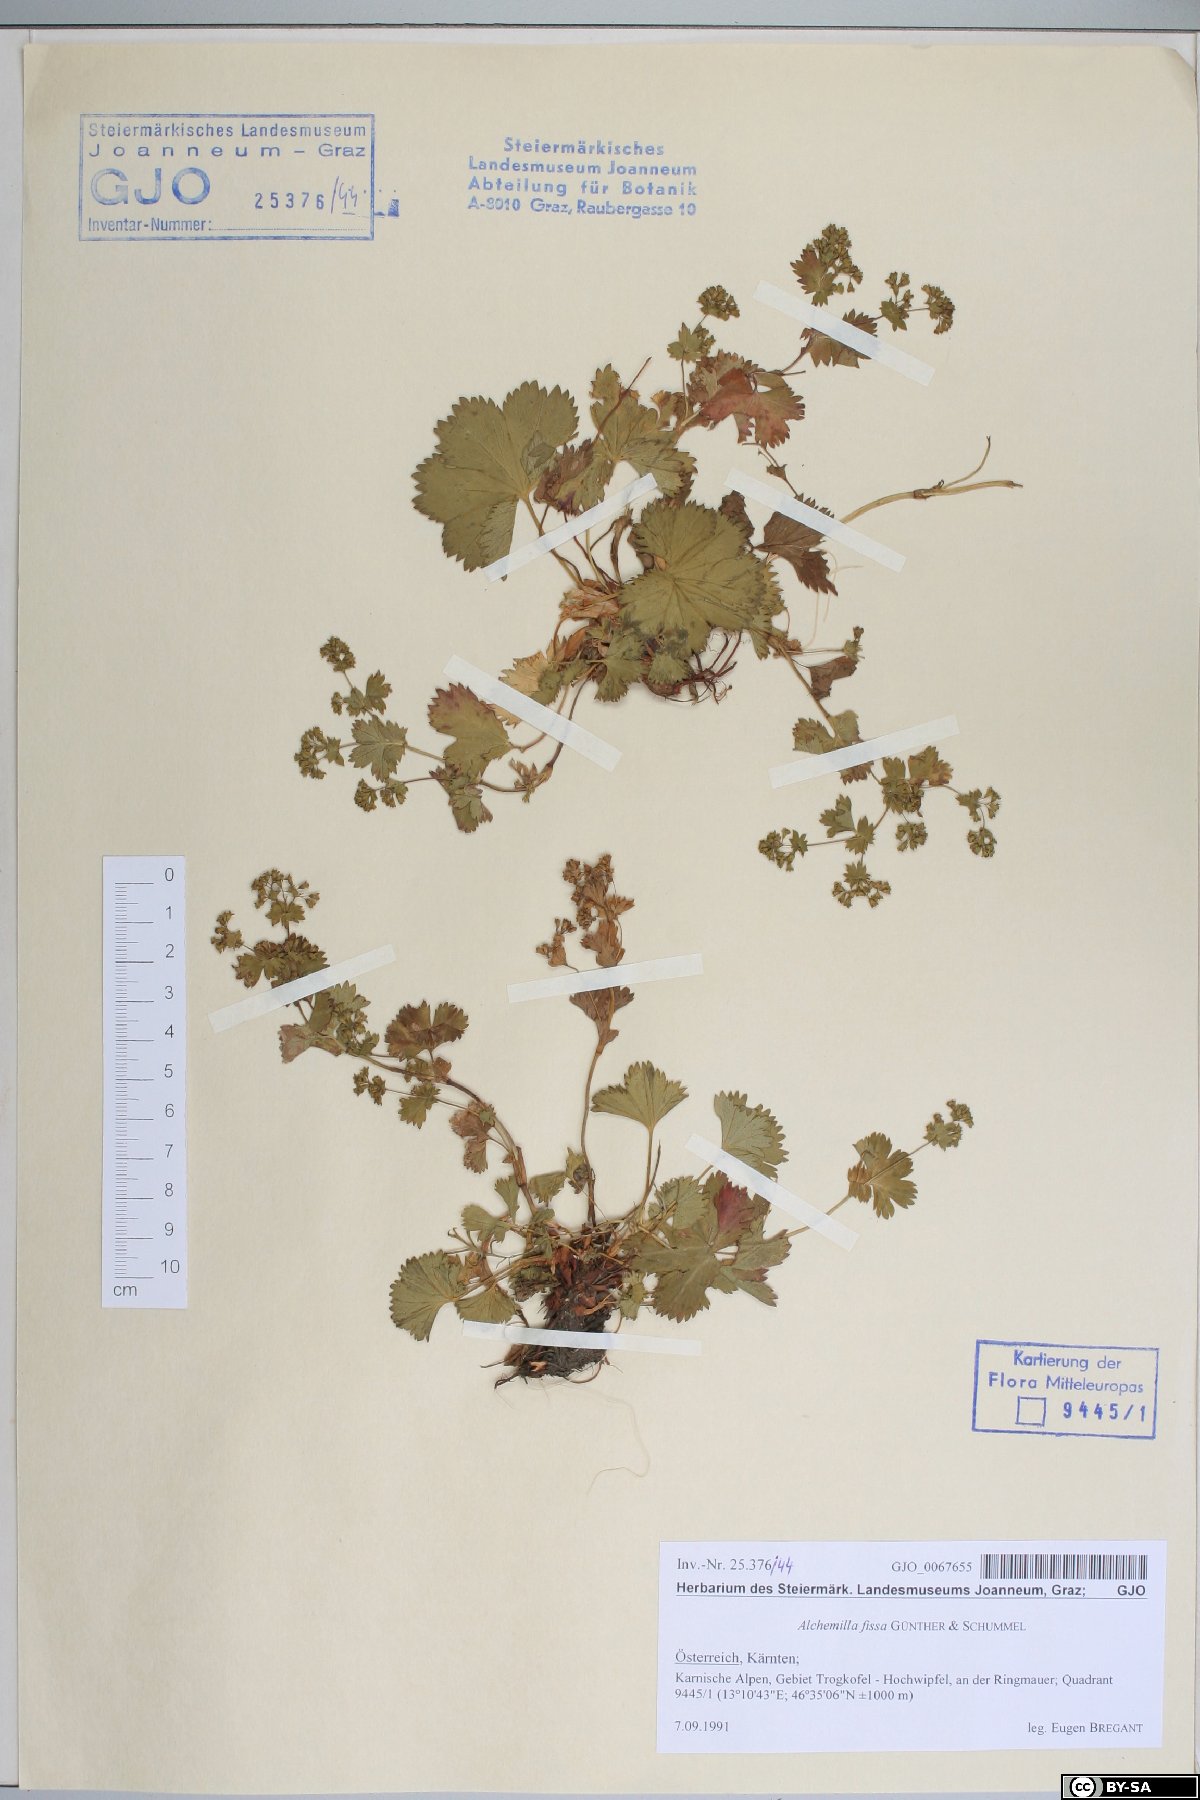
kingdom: Plantae
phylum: Tracheophyta
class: Magnoliopsida
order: Rosales
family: Rosaceae
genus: Alchemilla
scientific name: Alchemilla fissa
